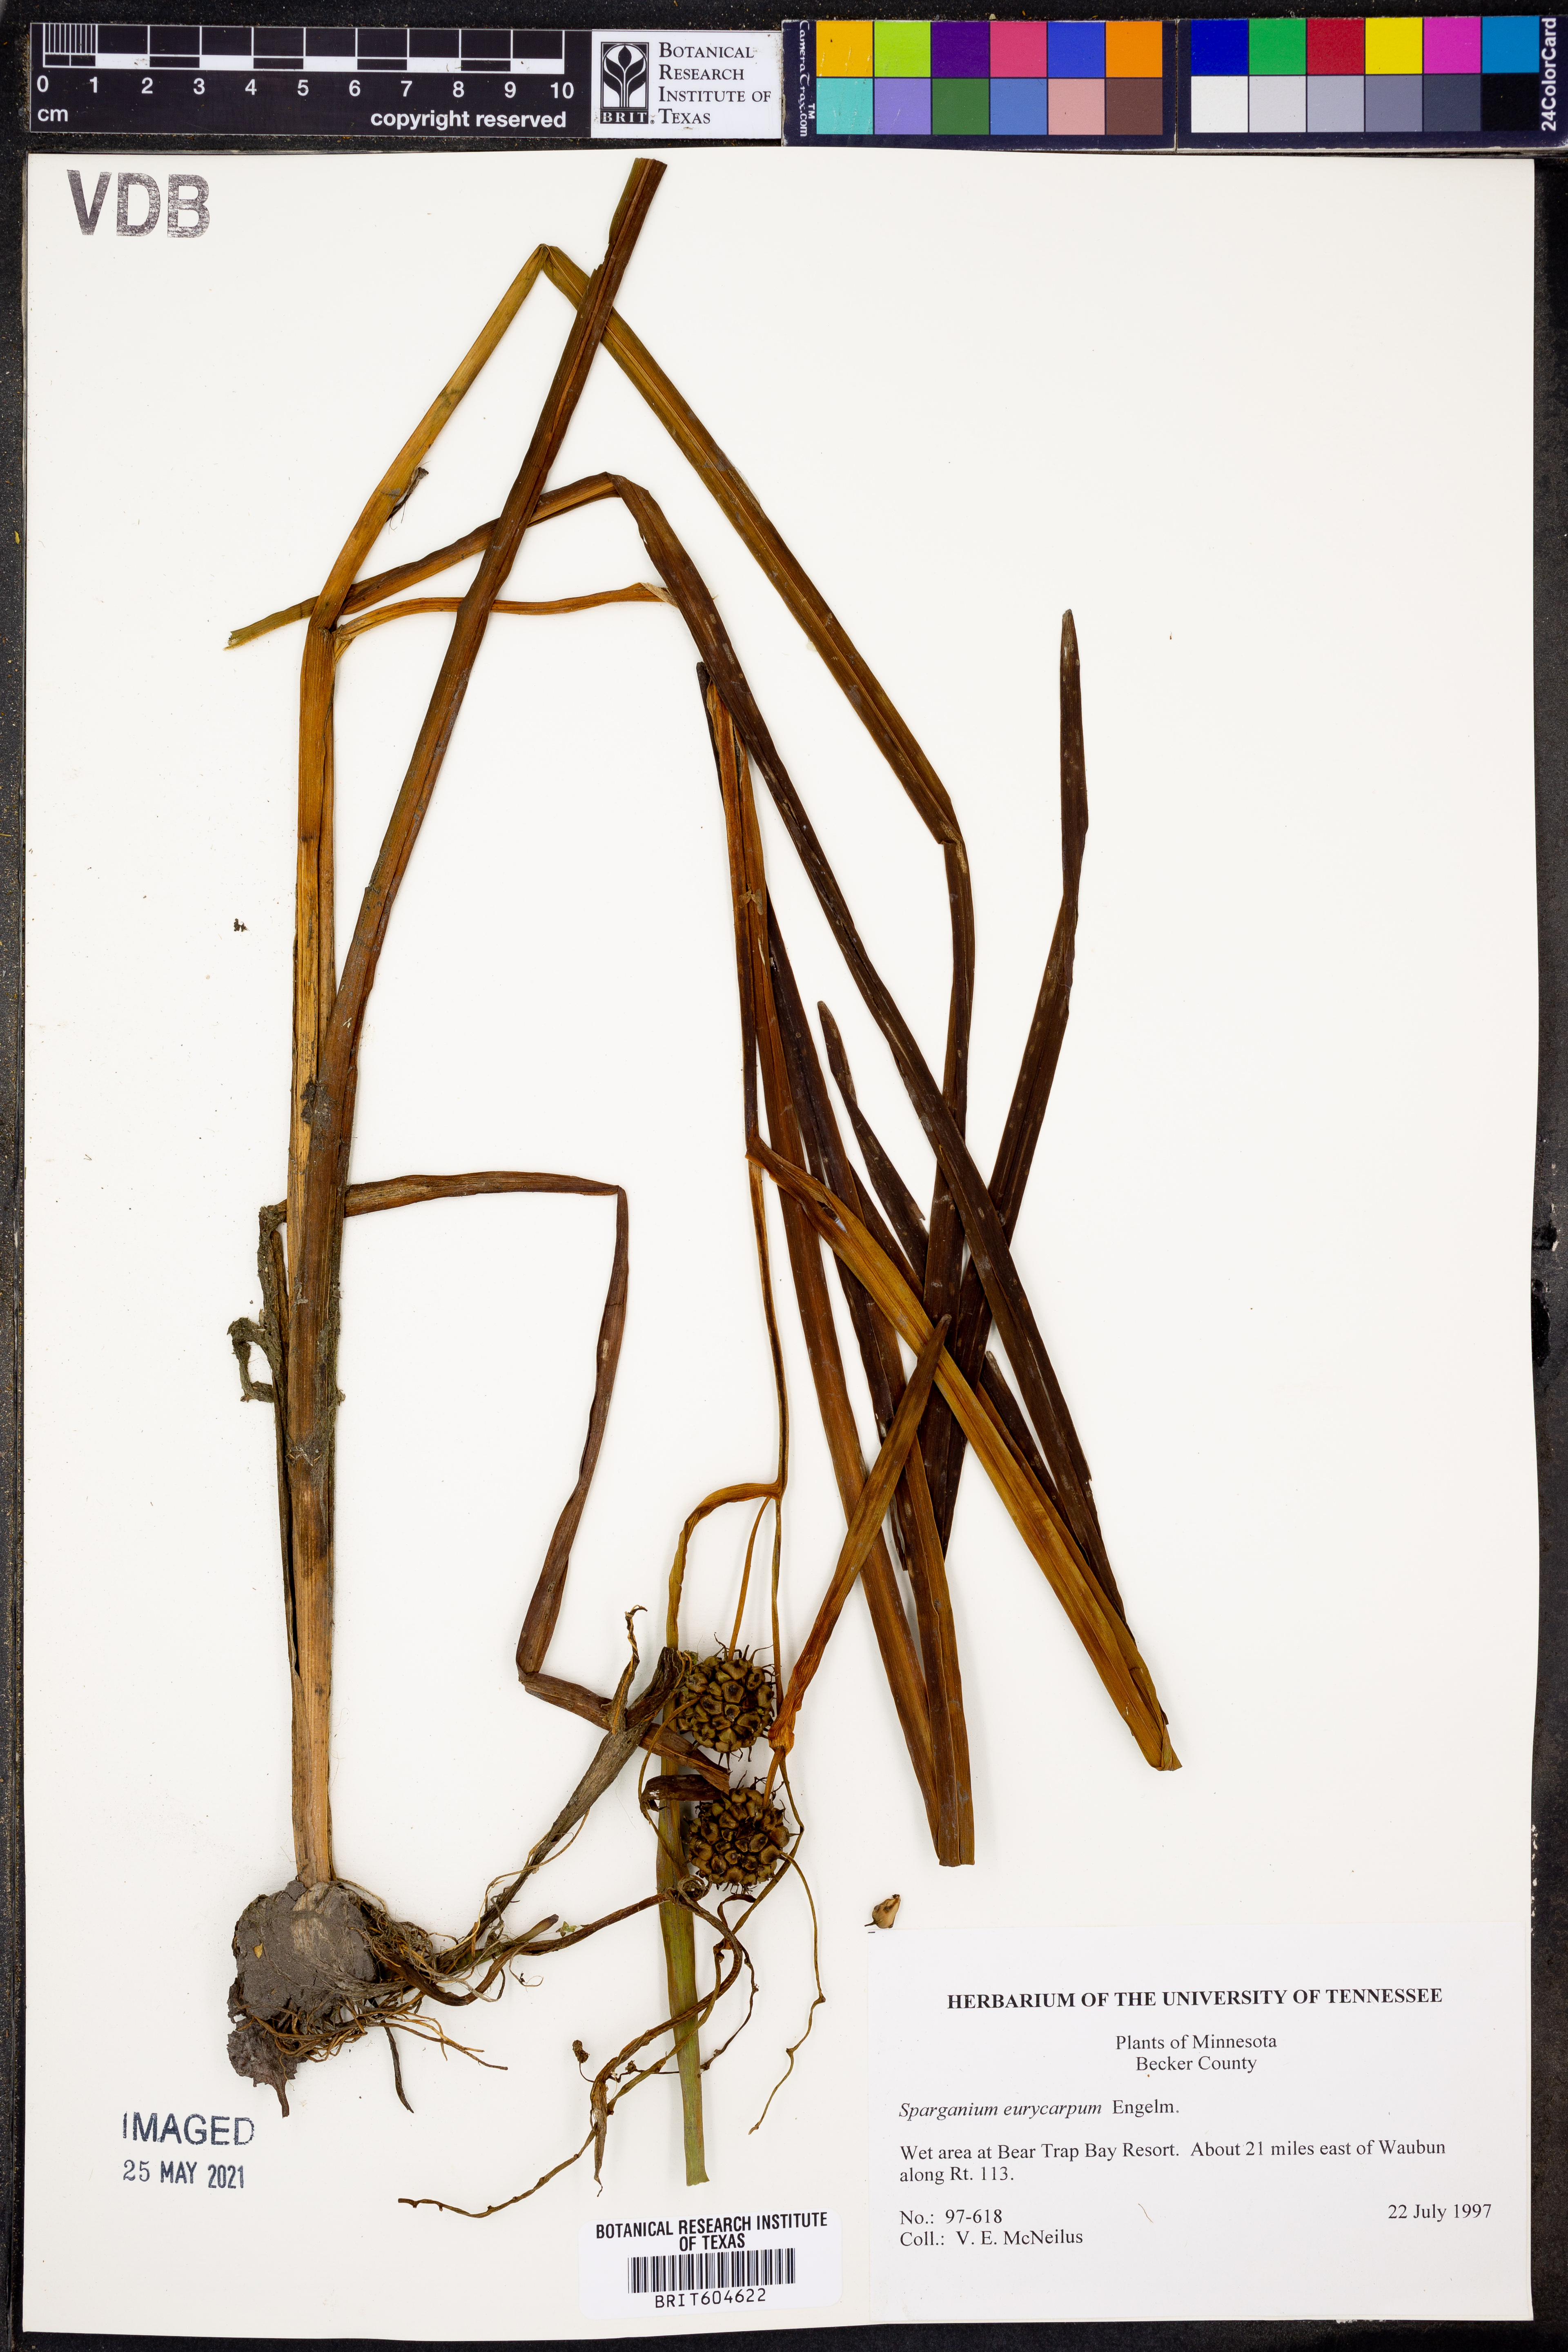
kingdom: Plantae
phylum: Tracheophyta
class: Liliopsida
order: Poales
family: Typhaceae
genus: Sparganium
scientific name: Sparganium eurycarpum
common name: Broad-fruited burreed
